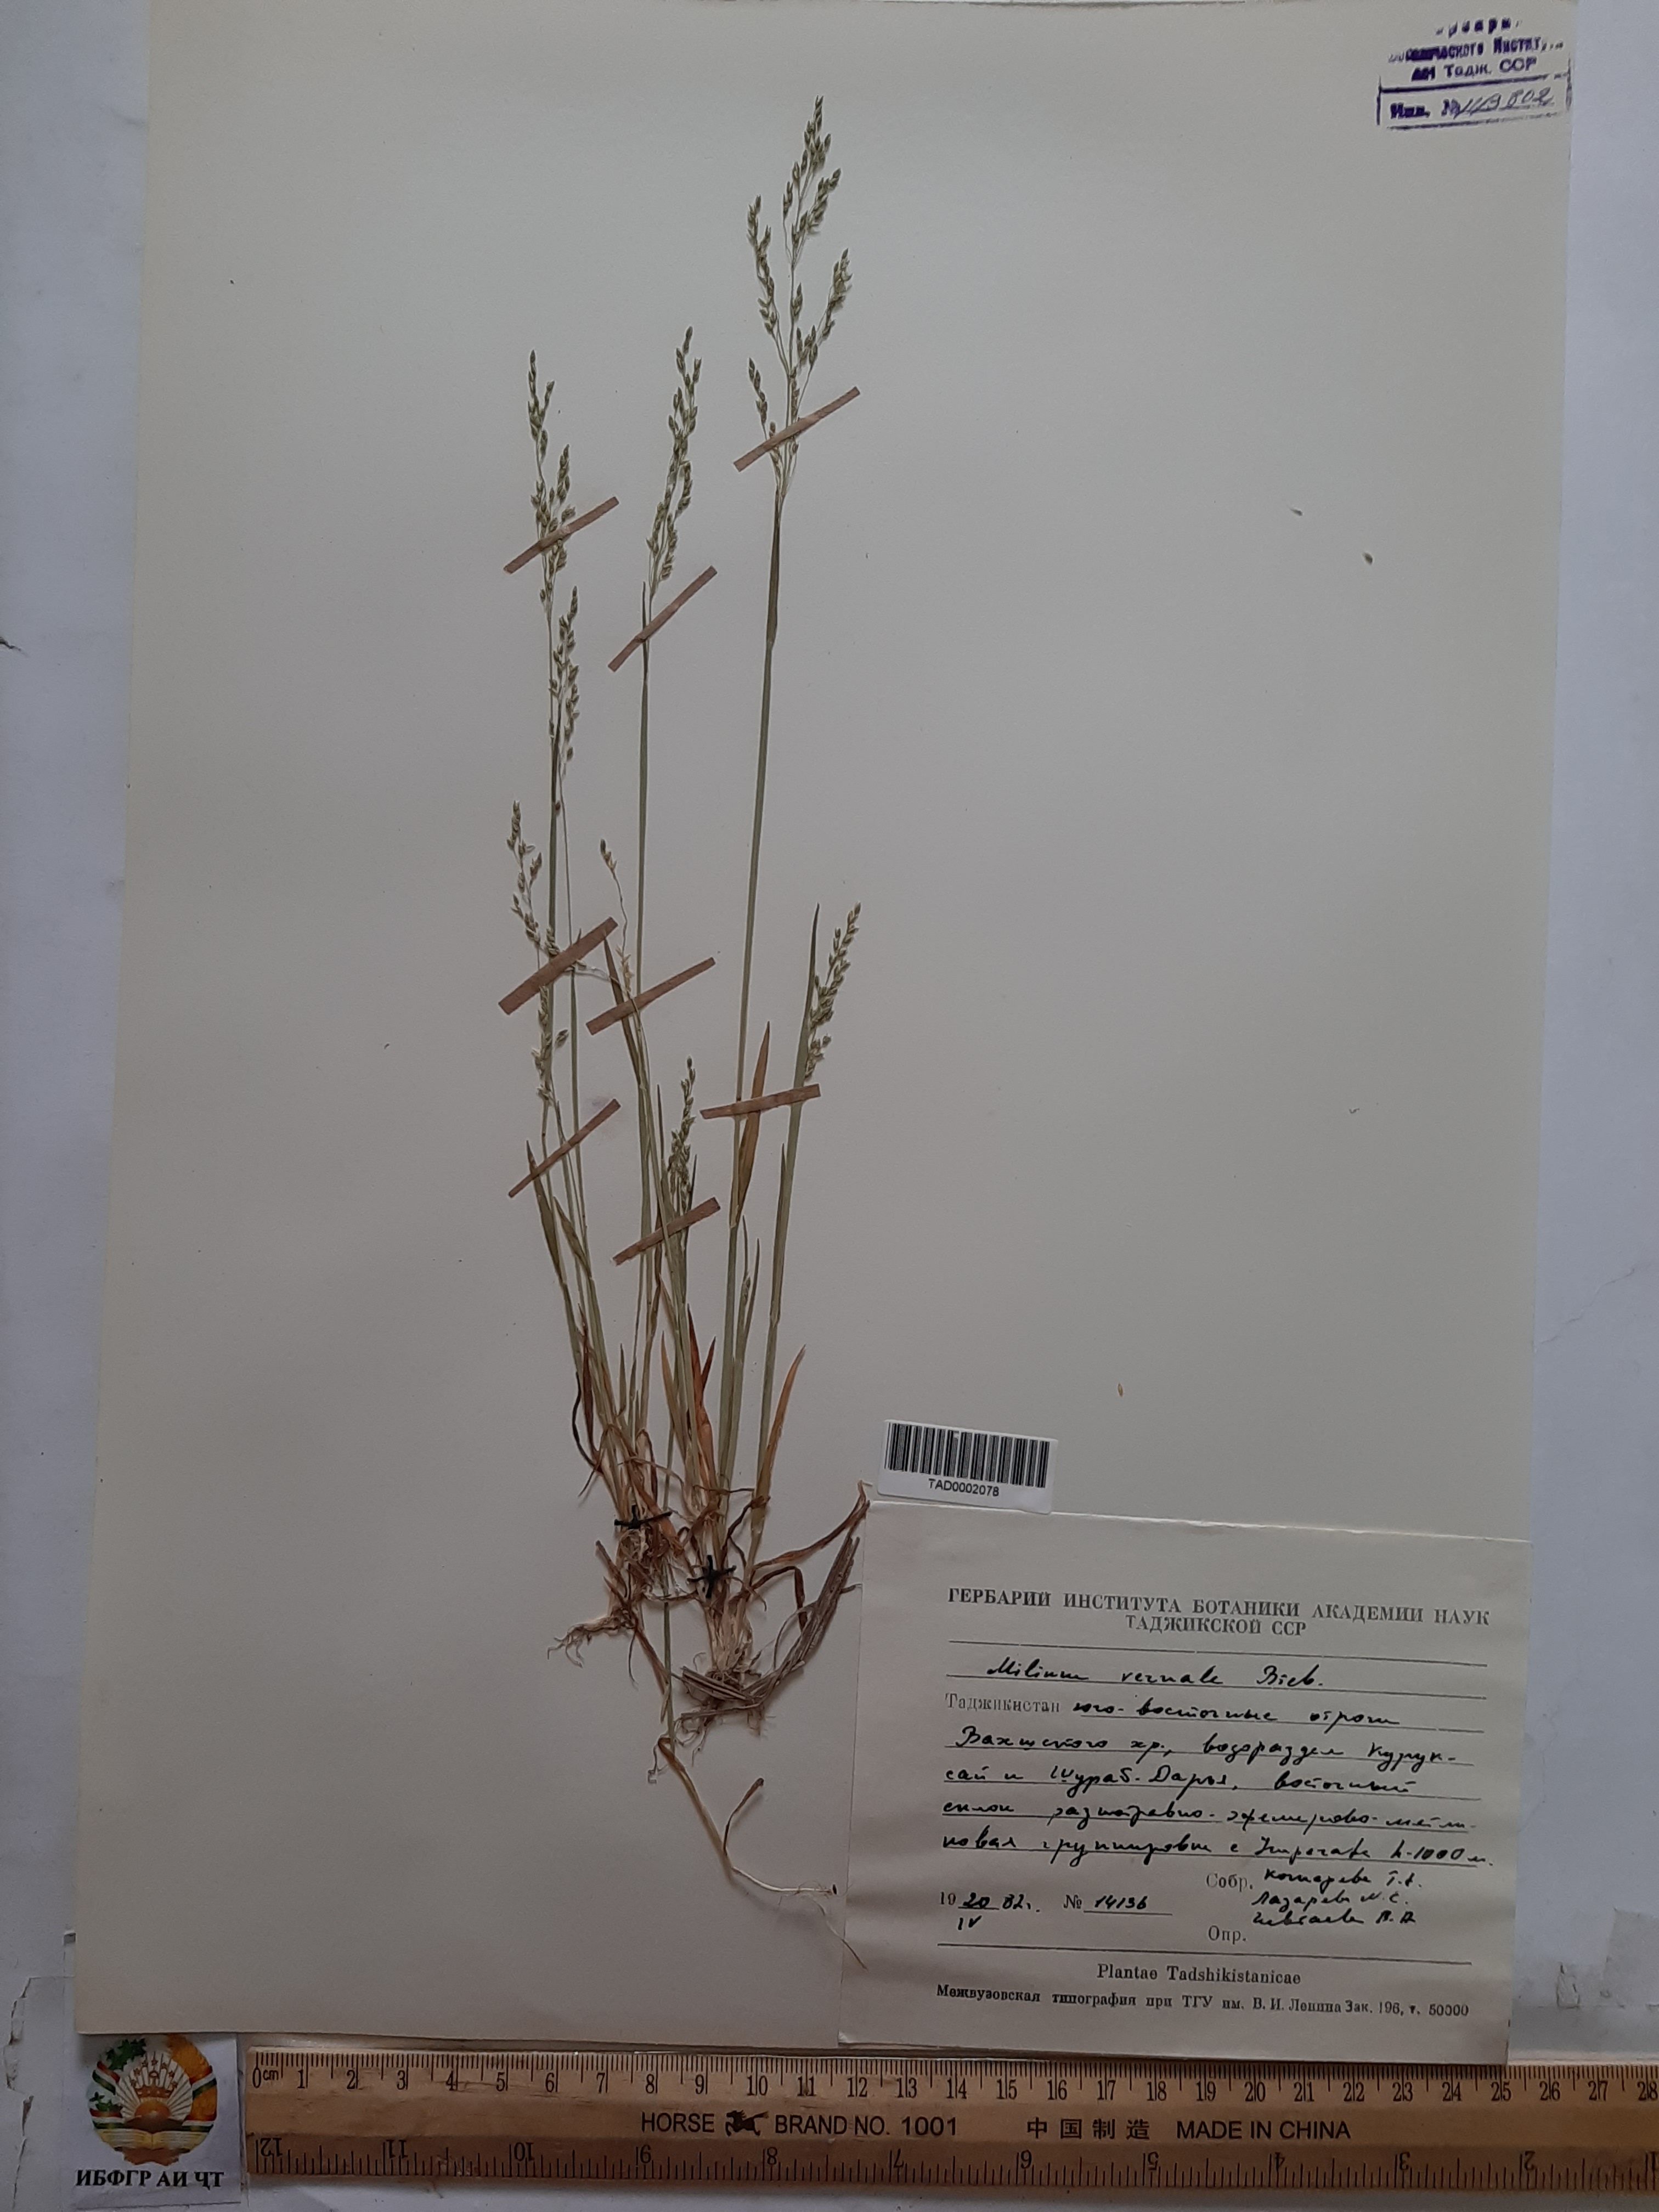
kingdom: Plantae
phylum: Tracheophyta
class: Liliopsida
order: Poales
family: Poaceae
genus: Milium
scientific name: Milium vernale
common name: Early millet
